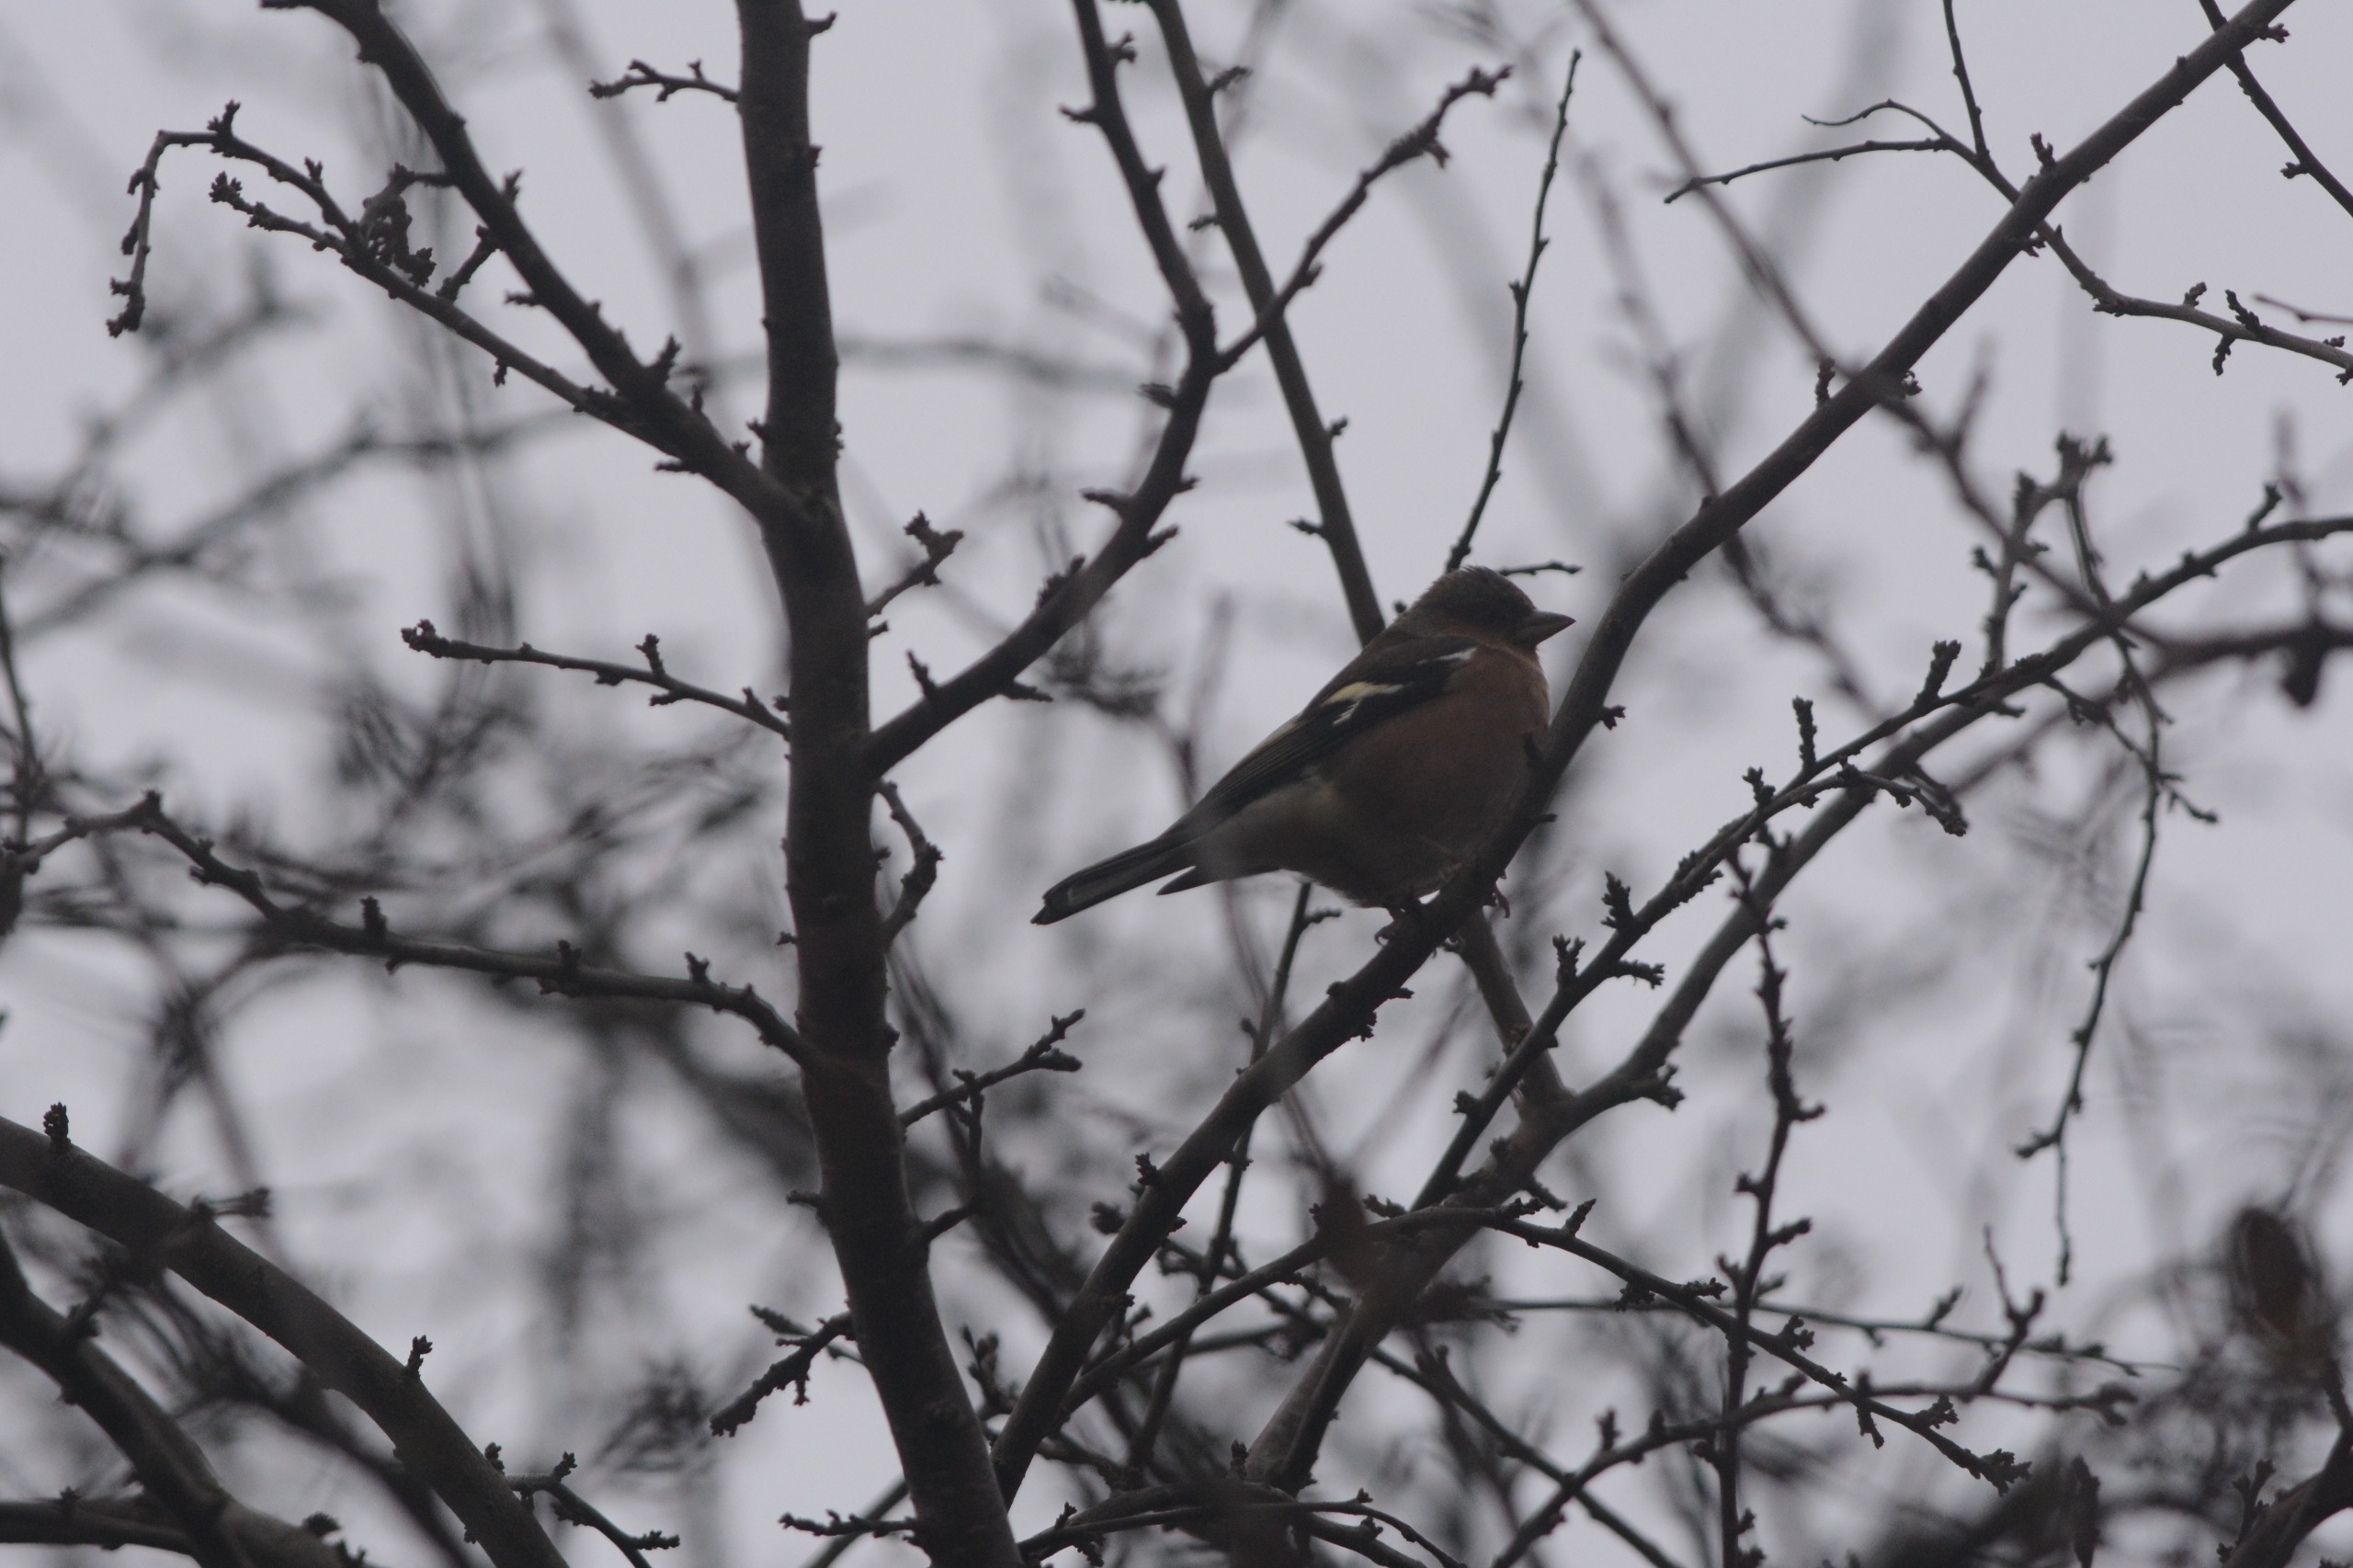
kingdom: Animalia
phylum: Chordata
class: Aves
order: Passeriformes
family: Fringillidae
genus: Fringilla
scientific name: Fringilla coelebs
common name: Bogfinke
